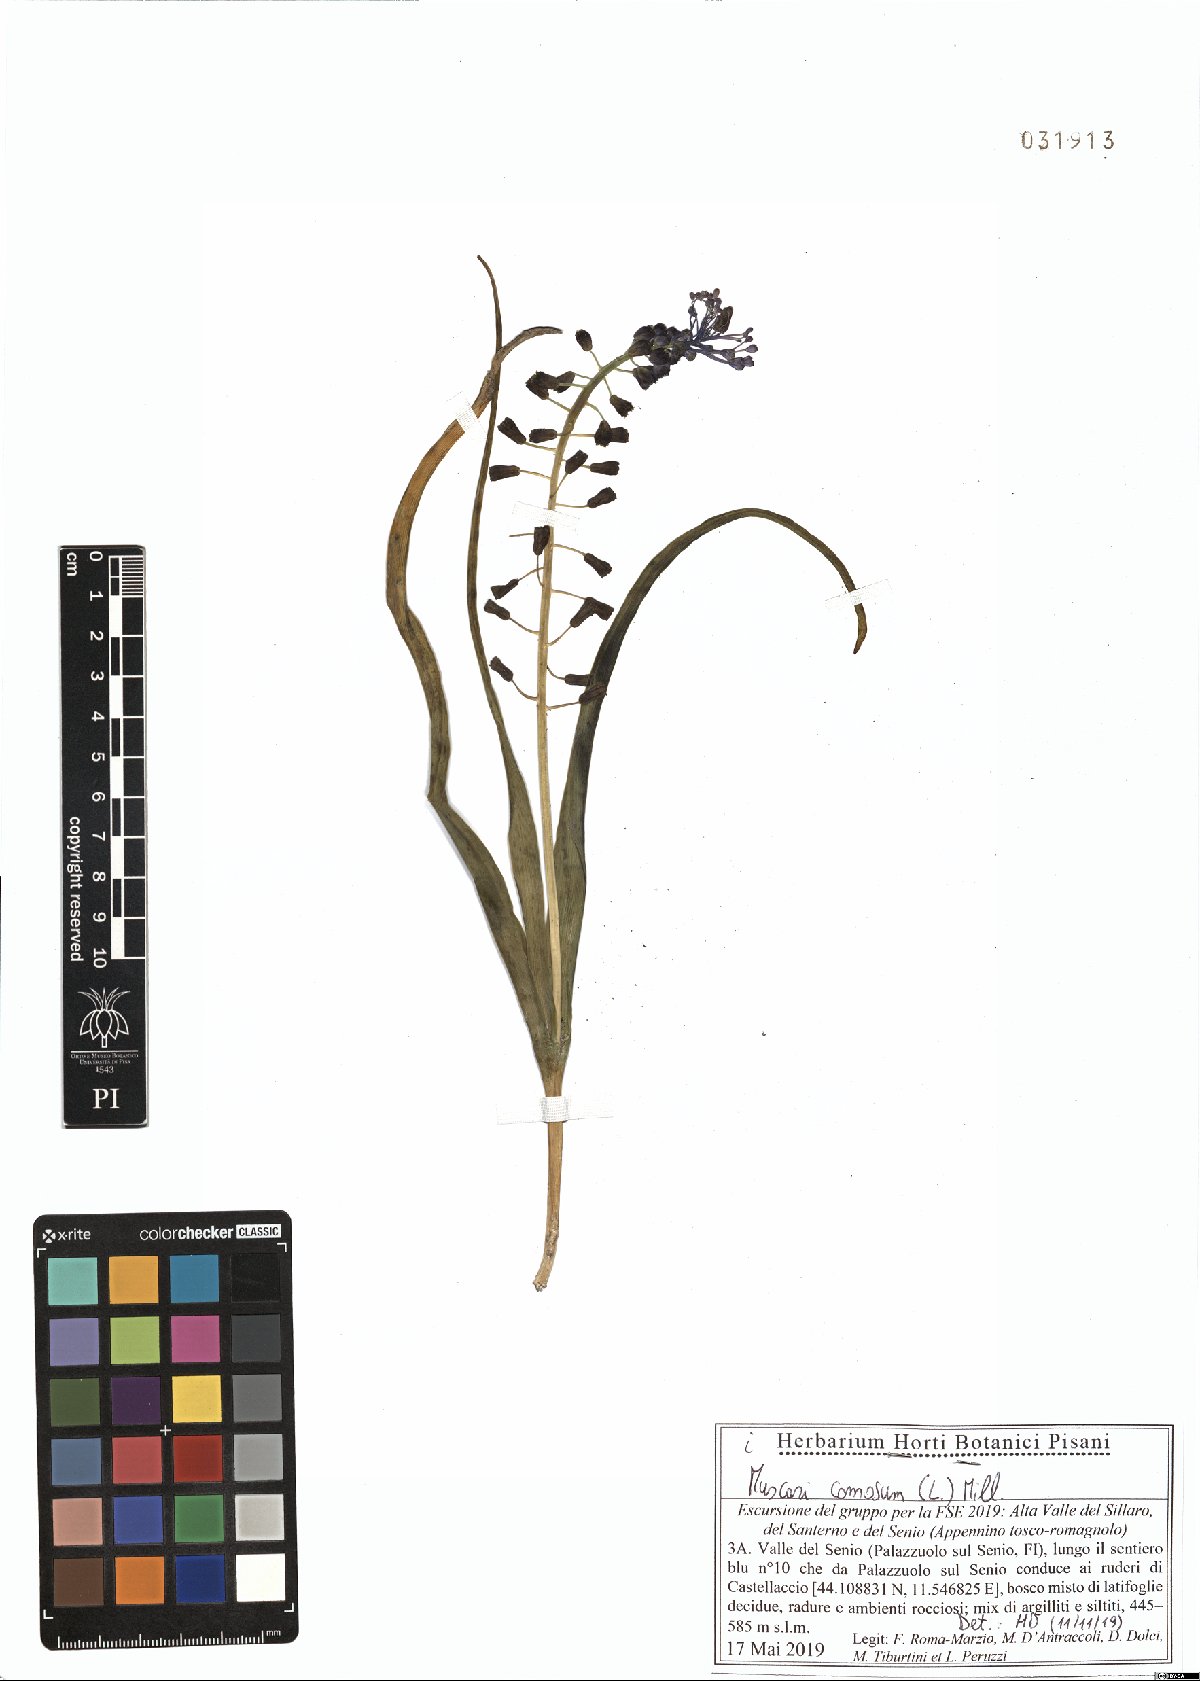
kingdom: Plantae
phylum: Tracheophyta
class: Liliopsida
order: Asparagales
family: Asparagaceae
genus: Muscari
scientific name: Muscari comosum
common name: Tassel hyacinth
